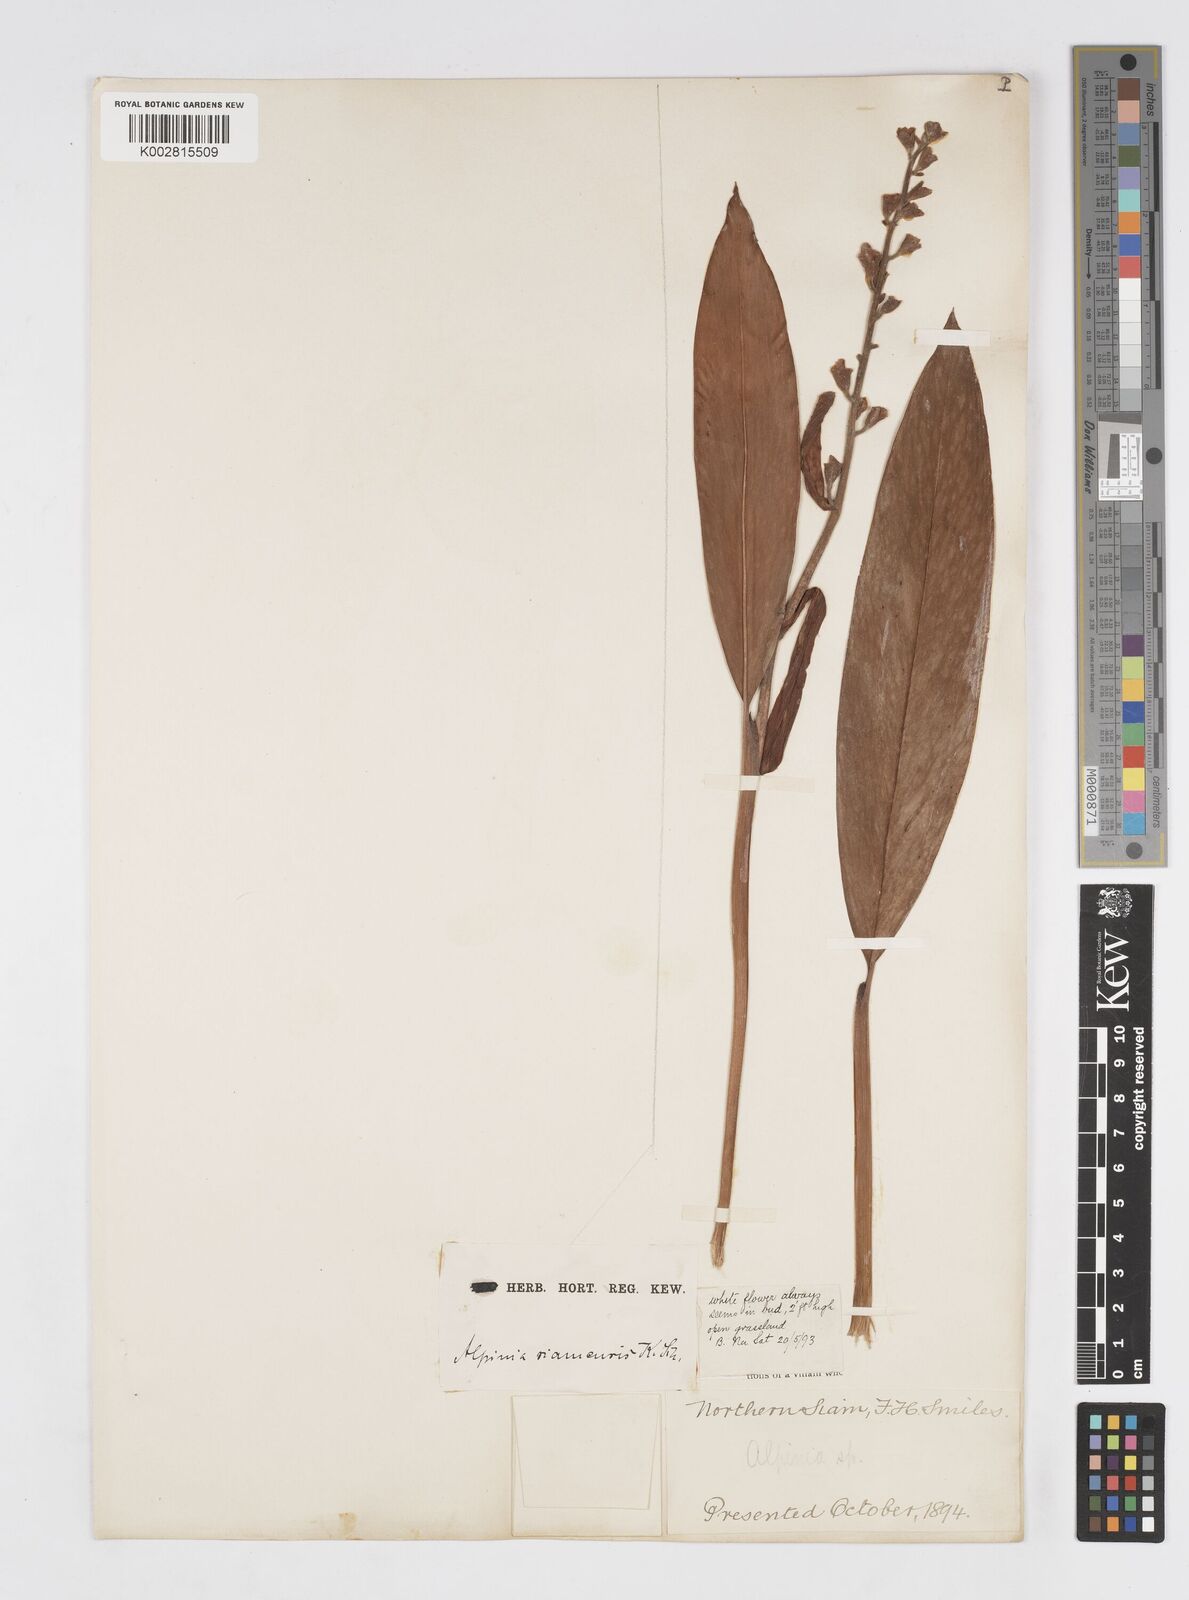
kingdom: Plantae
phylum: Tracheophyta
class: Liliopsida
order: Zingiberales
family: Zingiberaceae
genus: Alpinia
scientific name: Alpinia siamensis
